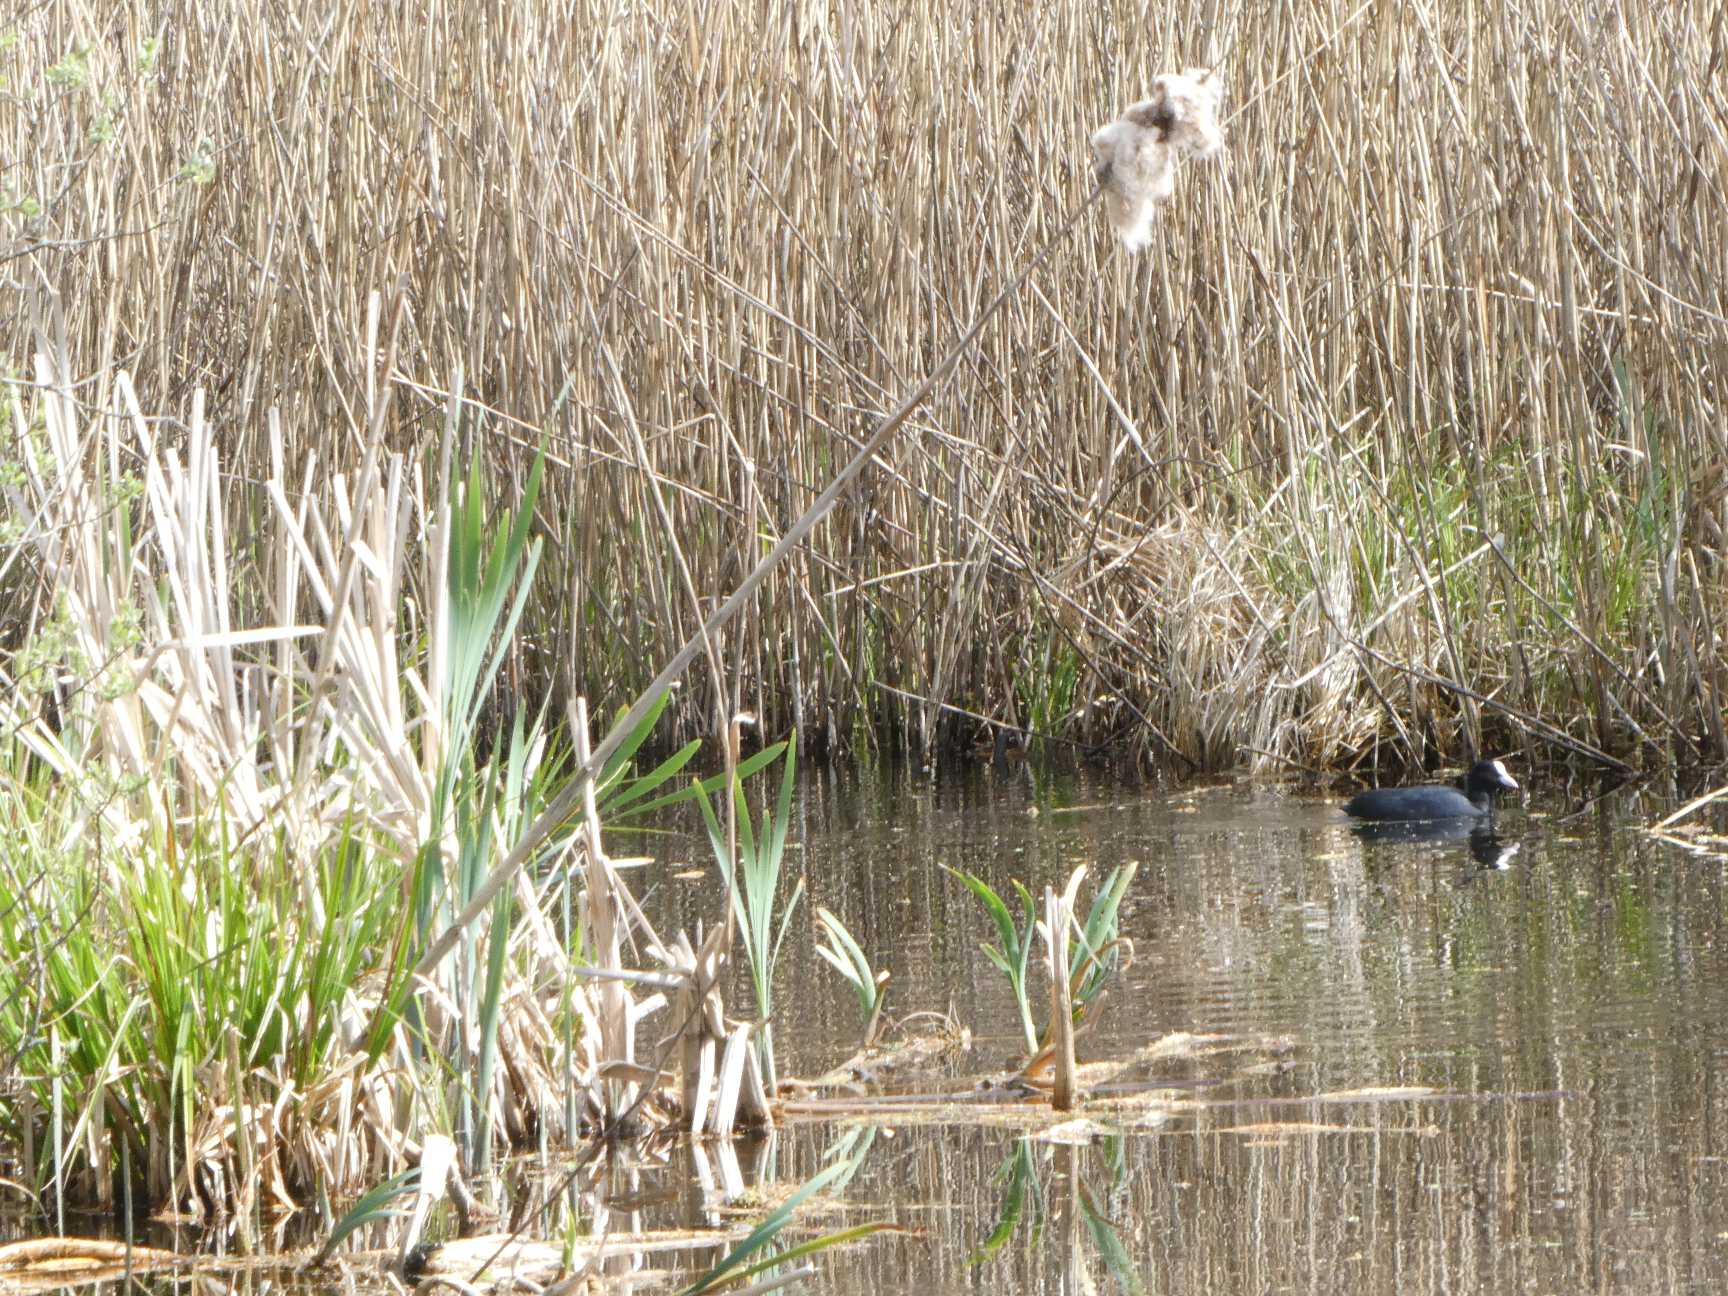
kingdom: Plantae
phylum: Tracheophyta
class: Liliopsida
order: Poales
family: Typhaceae
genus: Typha
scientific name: Typha latifolia
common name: Bredbladet dunhammer
